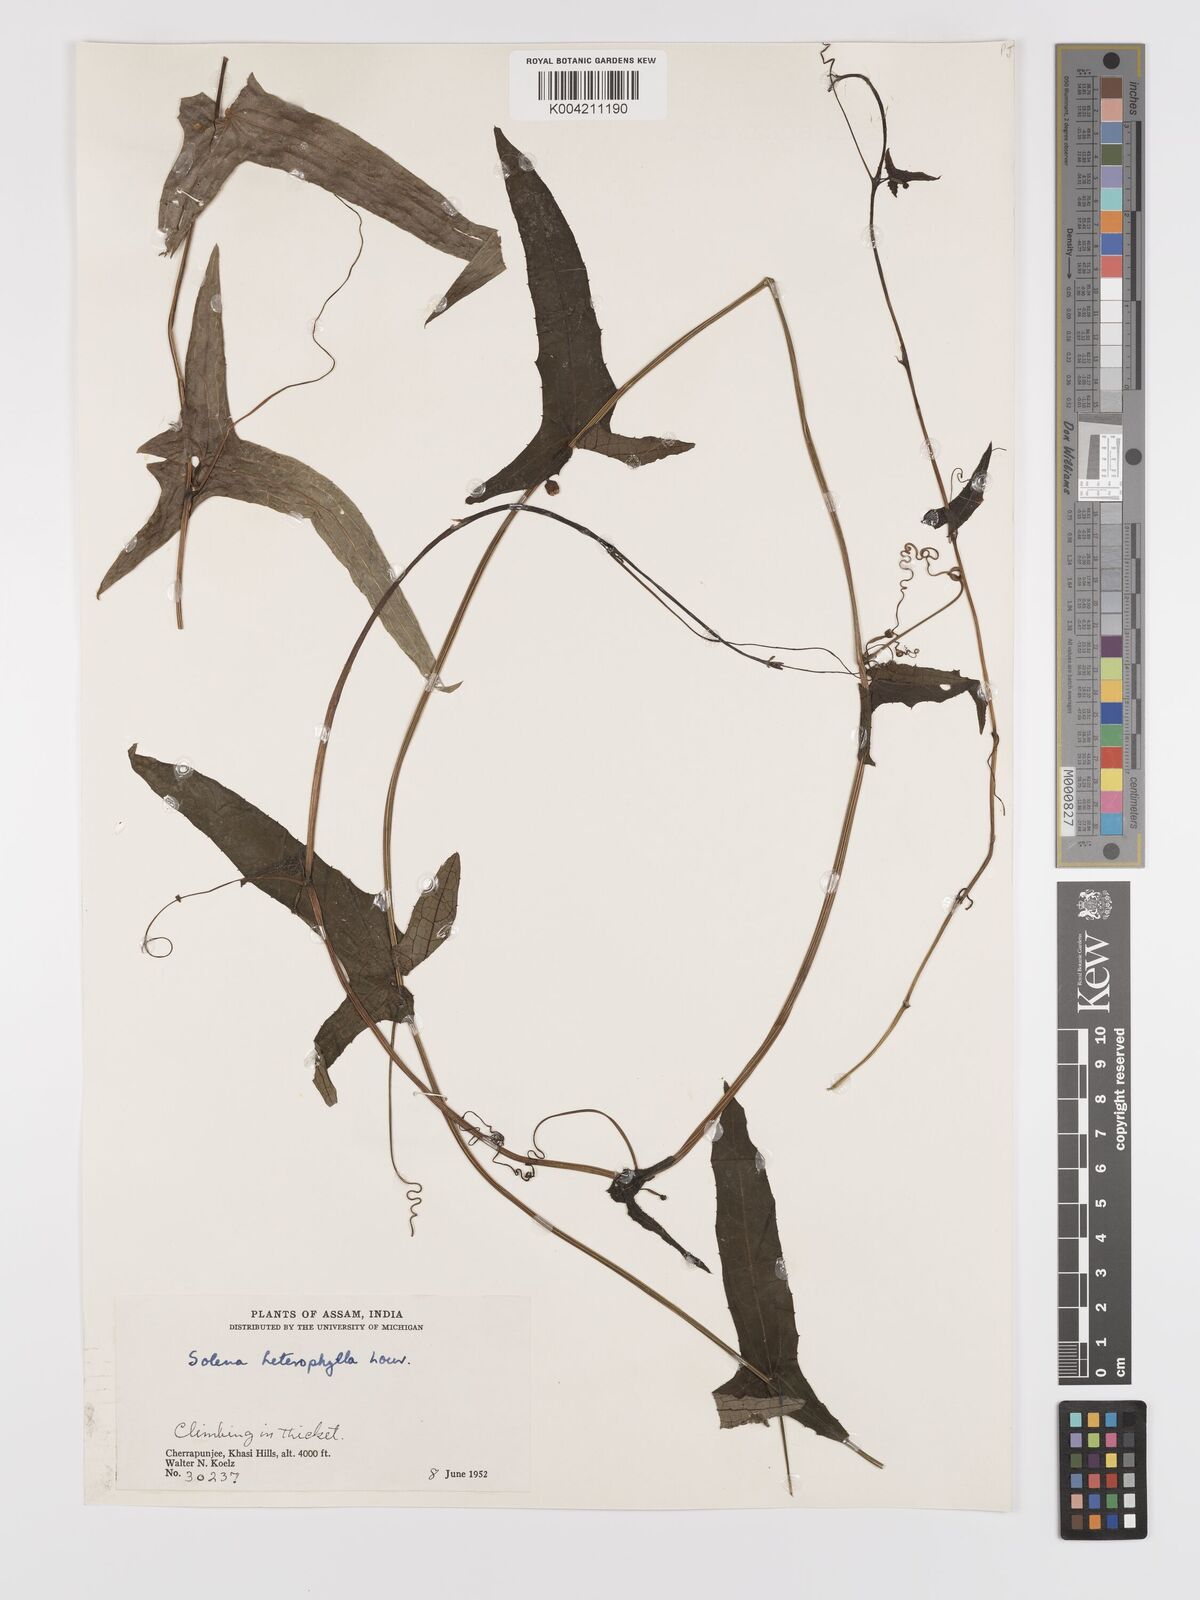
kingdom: Plantae
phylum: Tracheophyta
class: Magnoliopsida
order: Cucurbitales
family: Cucurbitaceae
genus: Solena
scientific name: Solena amplexicaulis
